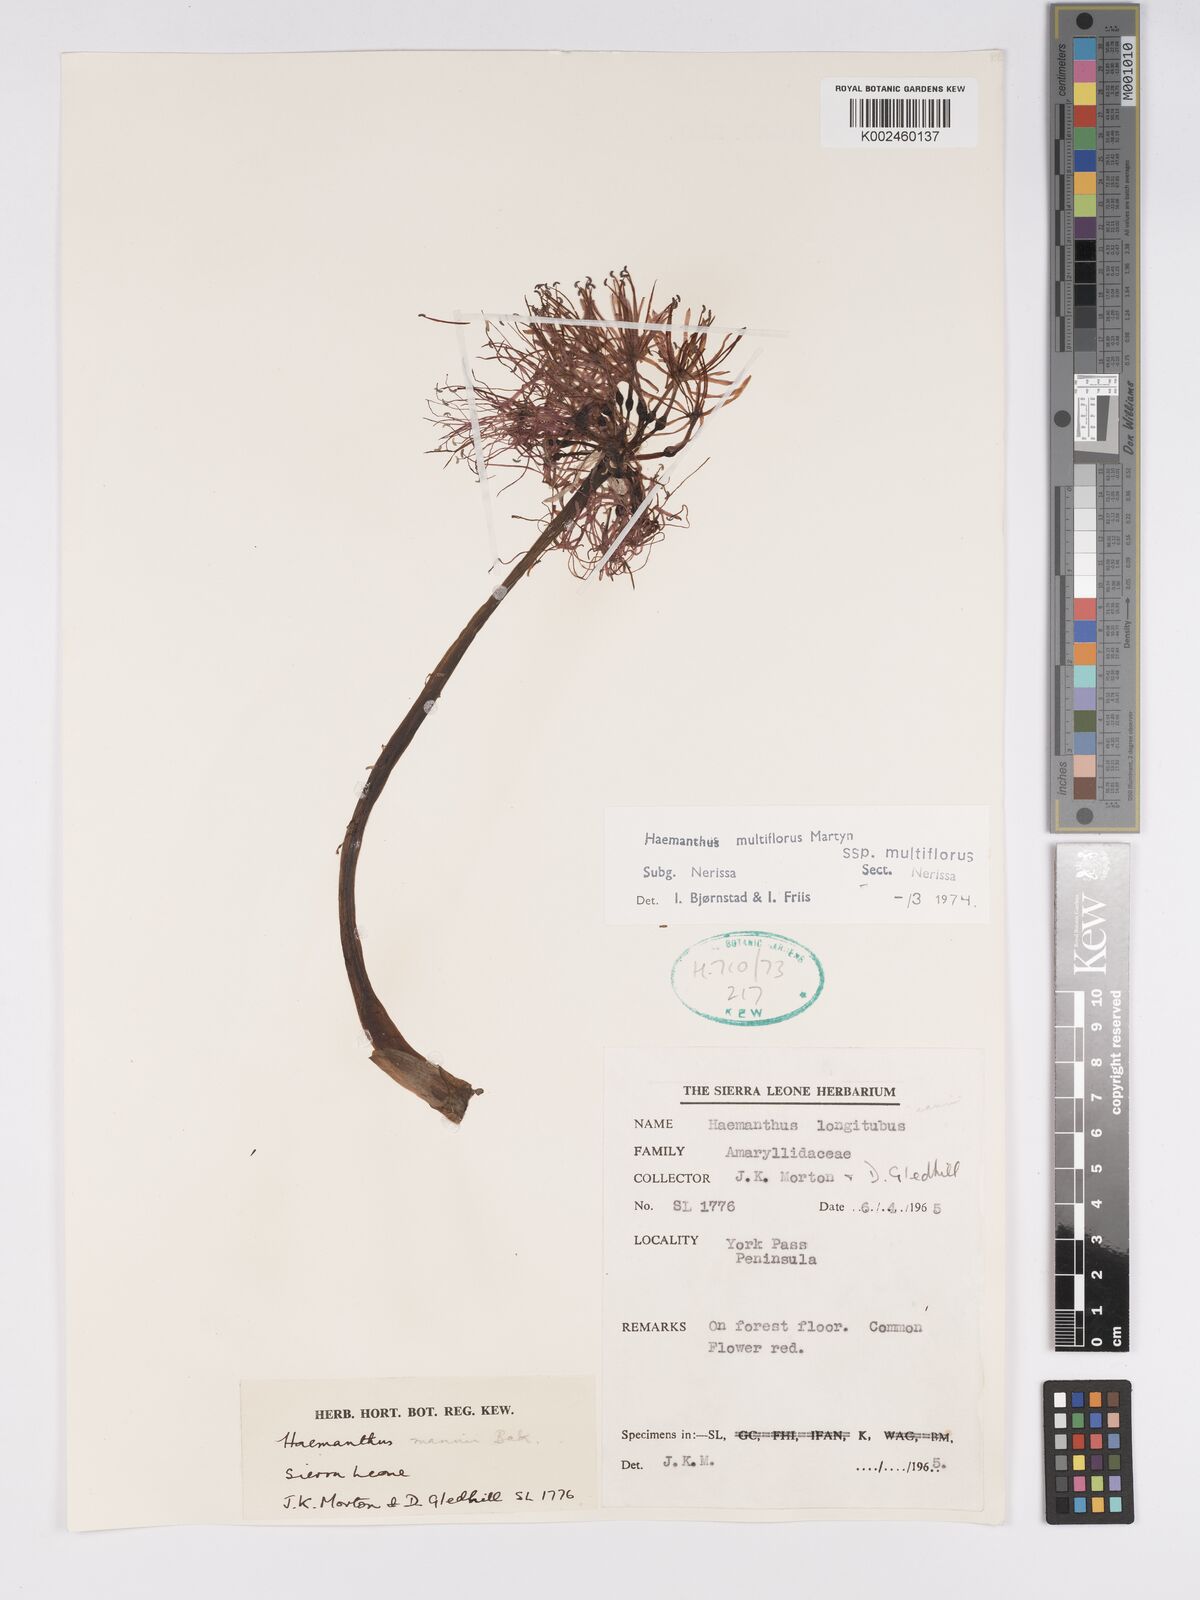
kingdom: Plantae
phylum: Tracheophyta
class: Liliopsida
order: Asparagales
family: Amaryllidaceae
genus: Scadoxus
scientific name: Scadoxus multiflorus
